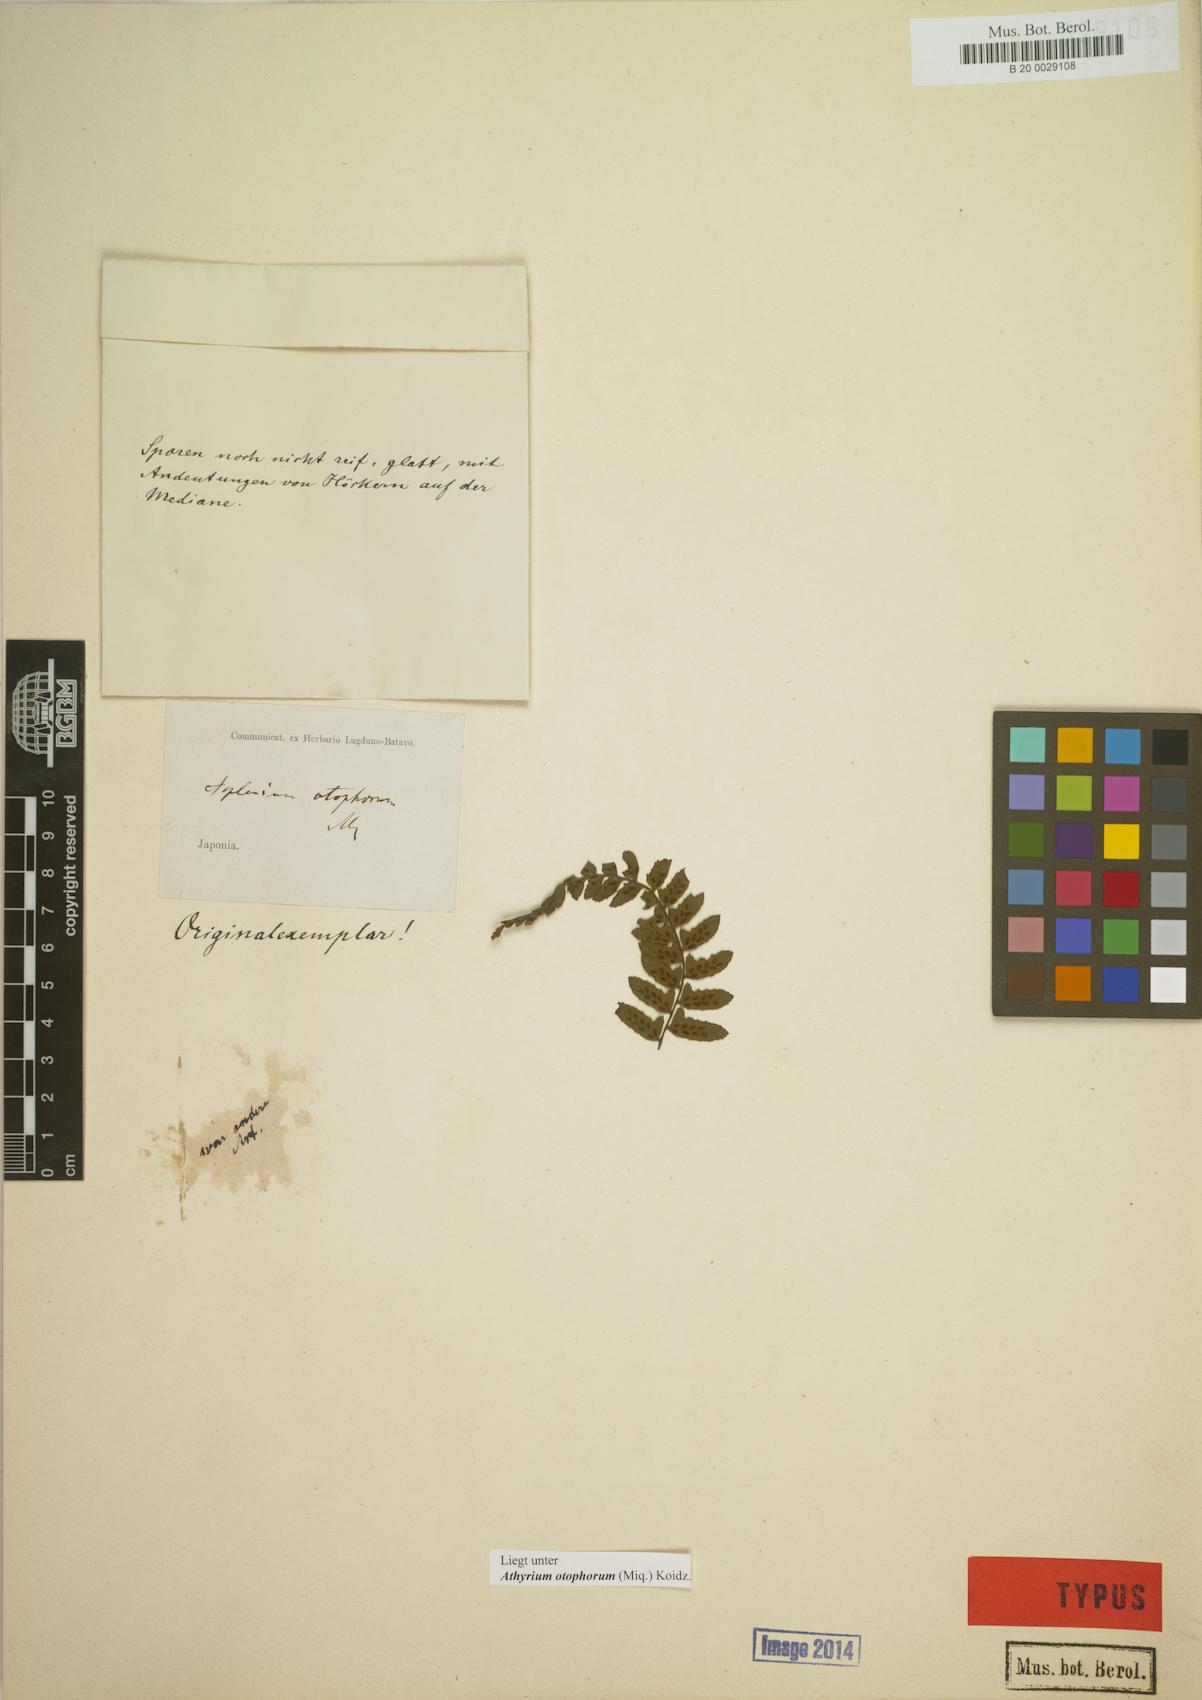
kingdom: Plantae
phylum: Tracheophyta
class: Polypodiopsida
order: Polypodiales
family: Athyriaceae
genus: Athyrium
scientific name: Athyrium otophorum
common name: Auriculate lady fern
